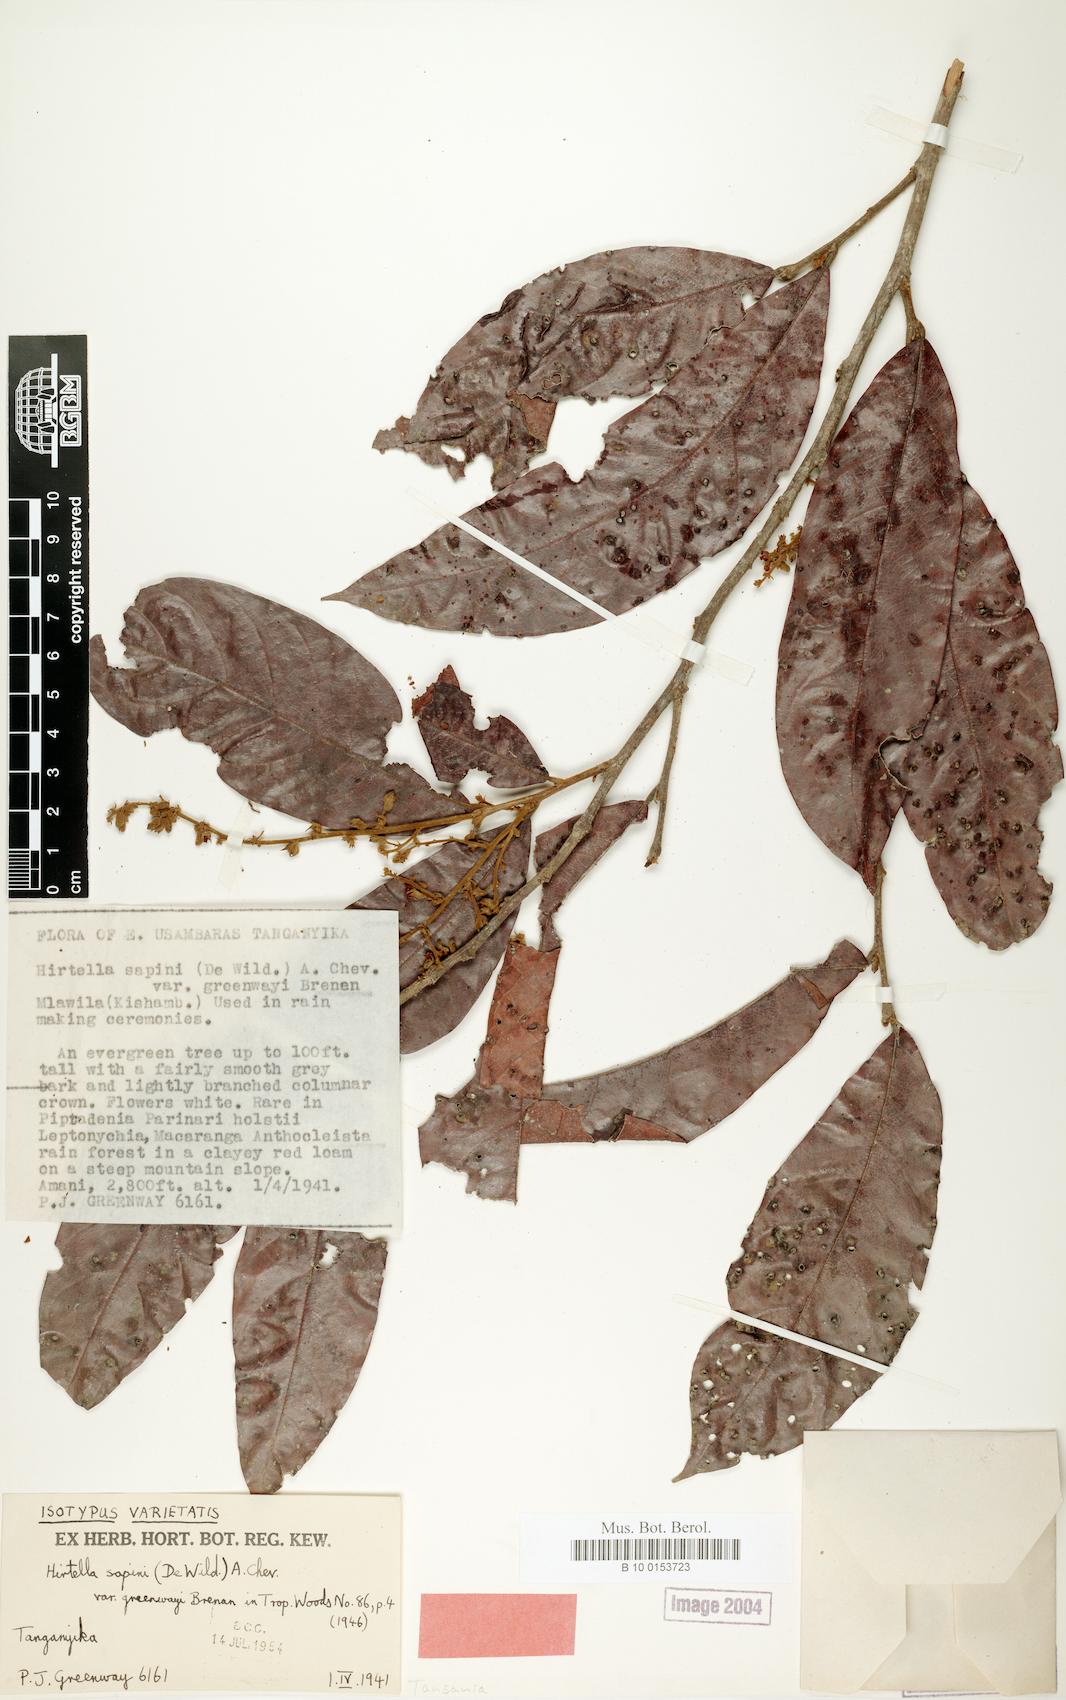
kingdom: Plantae
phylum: Tracheophyta
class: Magnoliopsida
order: Malpighiales
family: Chrysobalanaceae
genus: Magnistipula
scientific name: Magnistipula butayei
